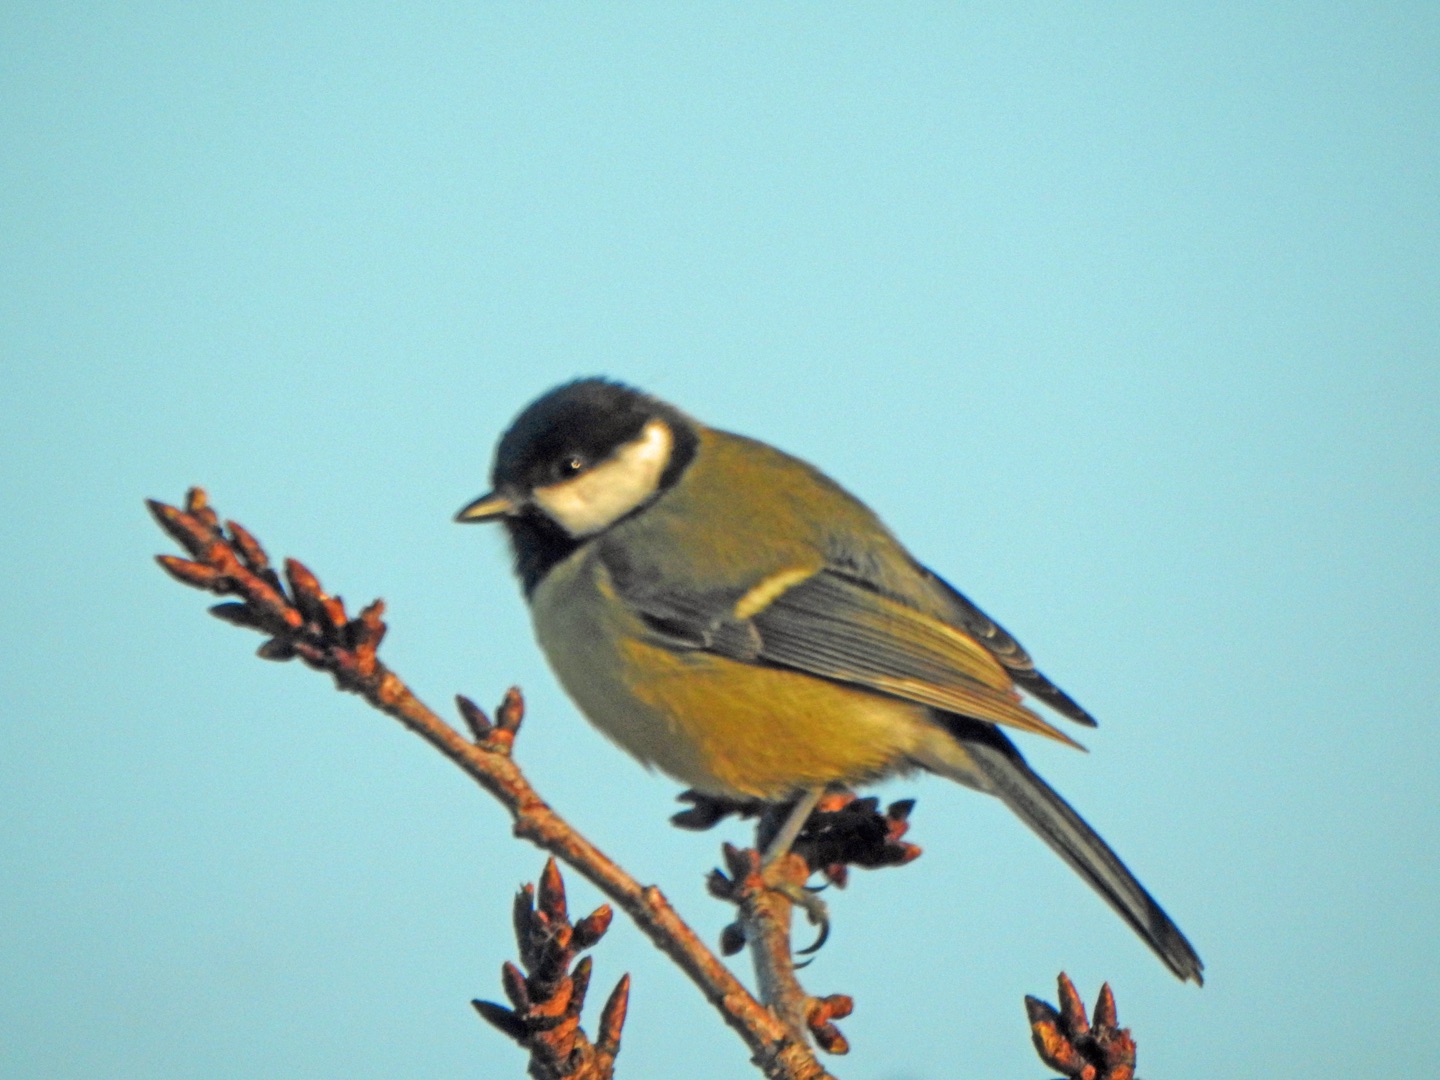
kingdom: Animalia
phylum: Chordata
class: Aves
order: Passeriformes
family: Paridae
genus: Parus
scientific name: Parus major
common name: Musvit
